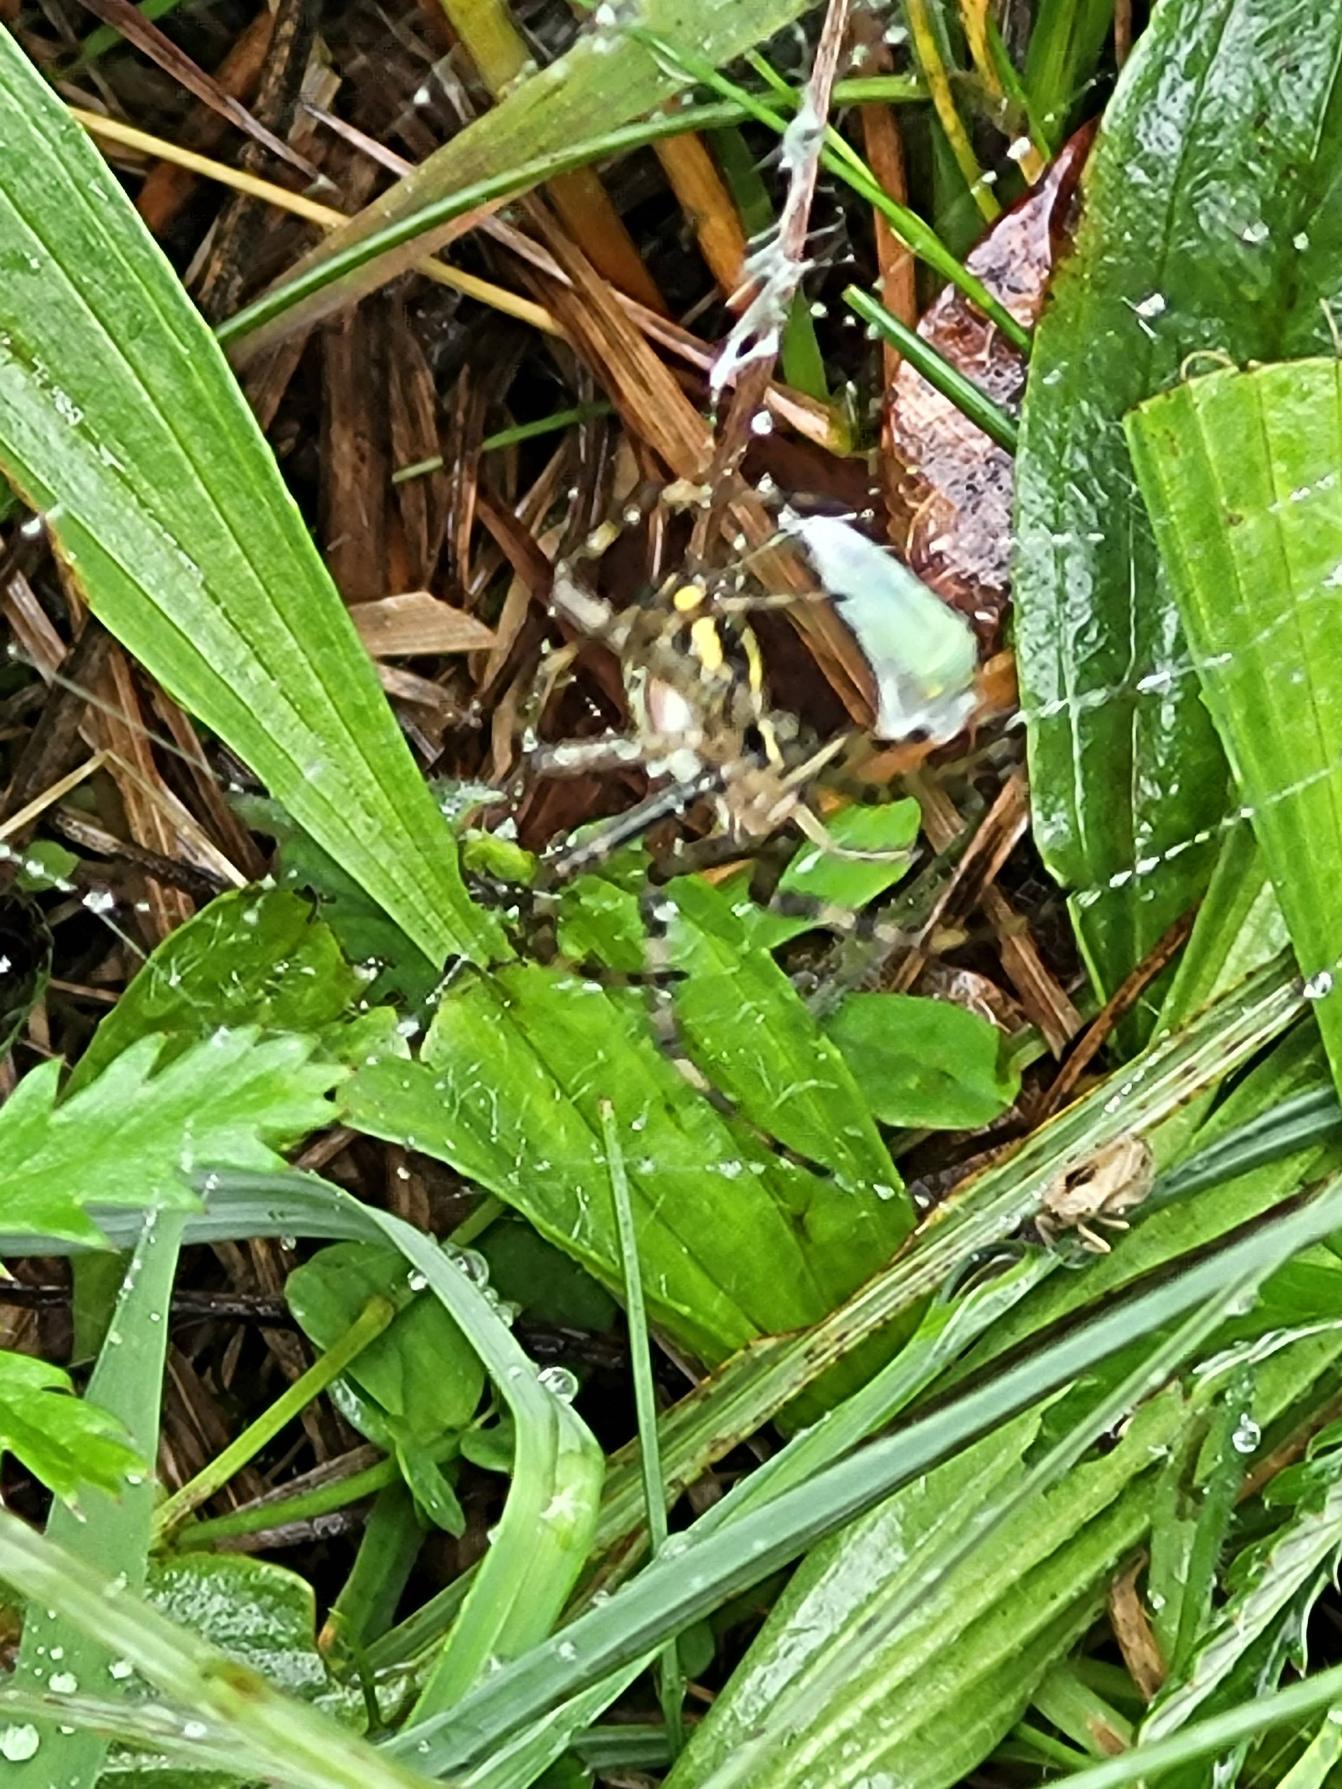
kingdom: Animalia
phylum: Arthropoda
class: Arachnida
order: Araneae
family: Araneidae
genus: Argiope
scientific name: Argiope bruennichi
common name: Hvepseedderkop
